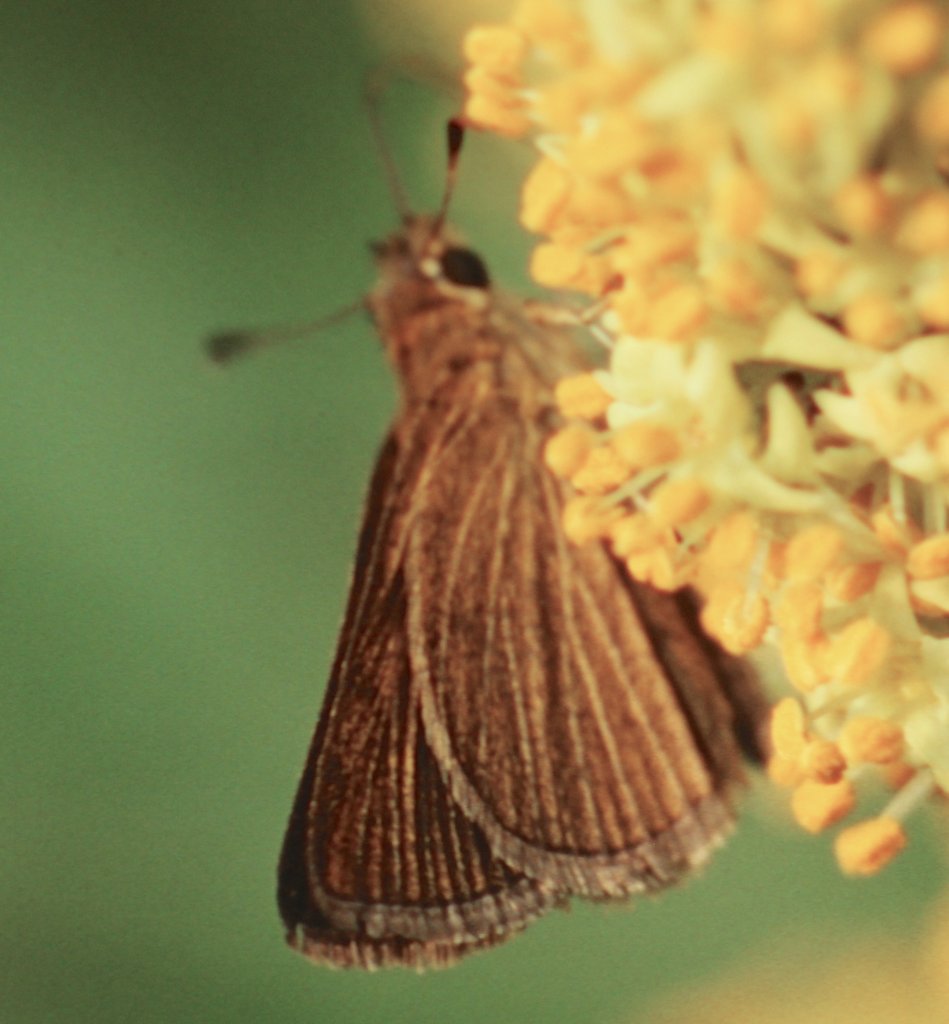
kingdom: Animalia
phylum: Arthropoda
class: Insecta
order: Lepidoptera
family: Hesperiidae
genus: Nastra
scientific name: Nastra lherminier
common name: Swarthy Skipper
